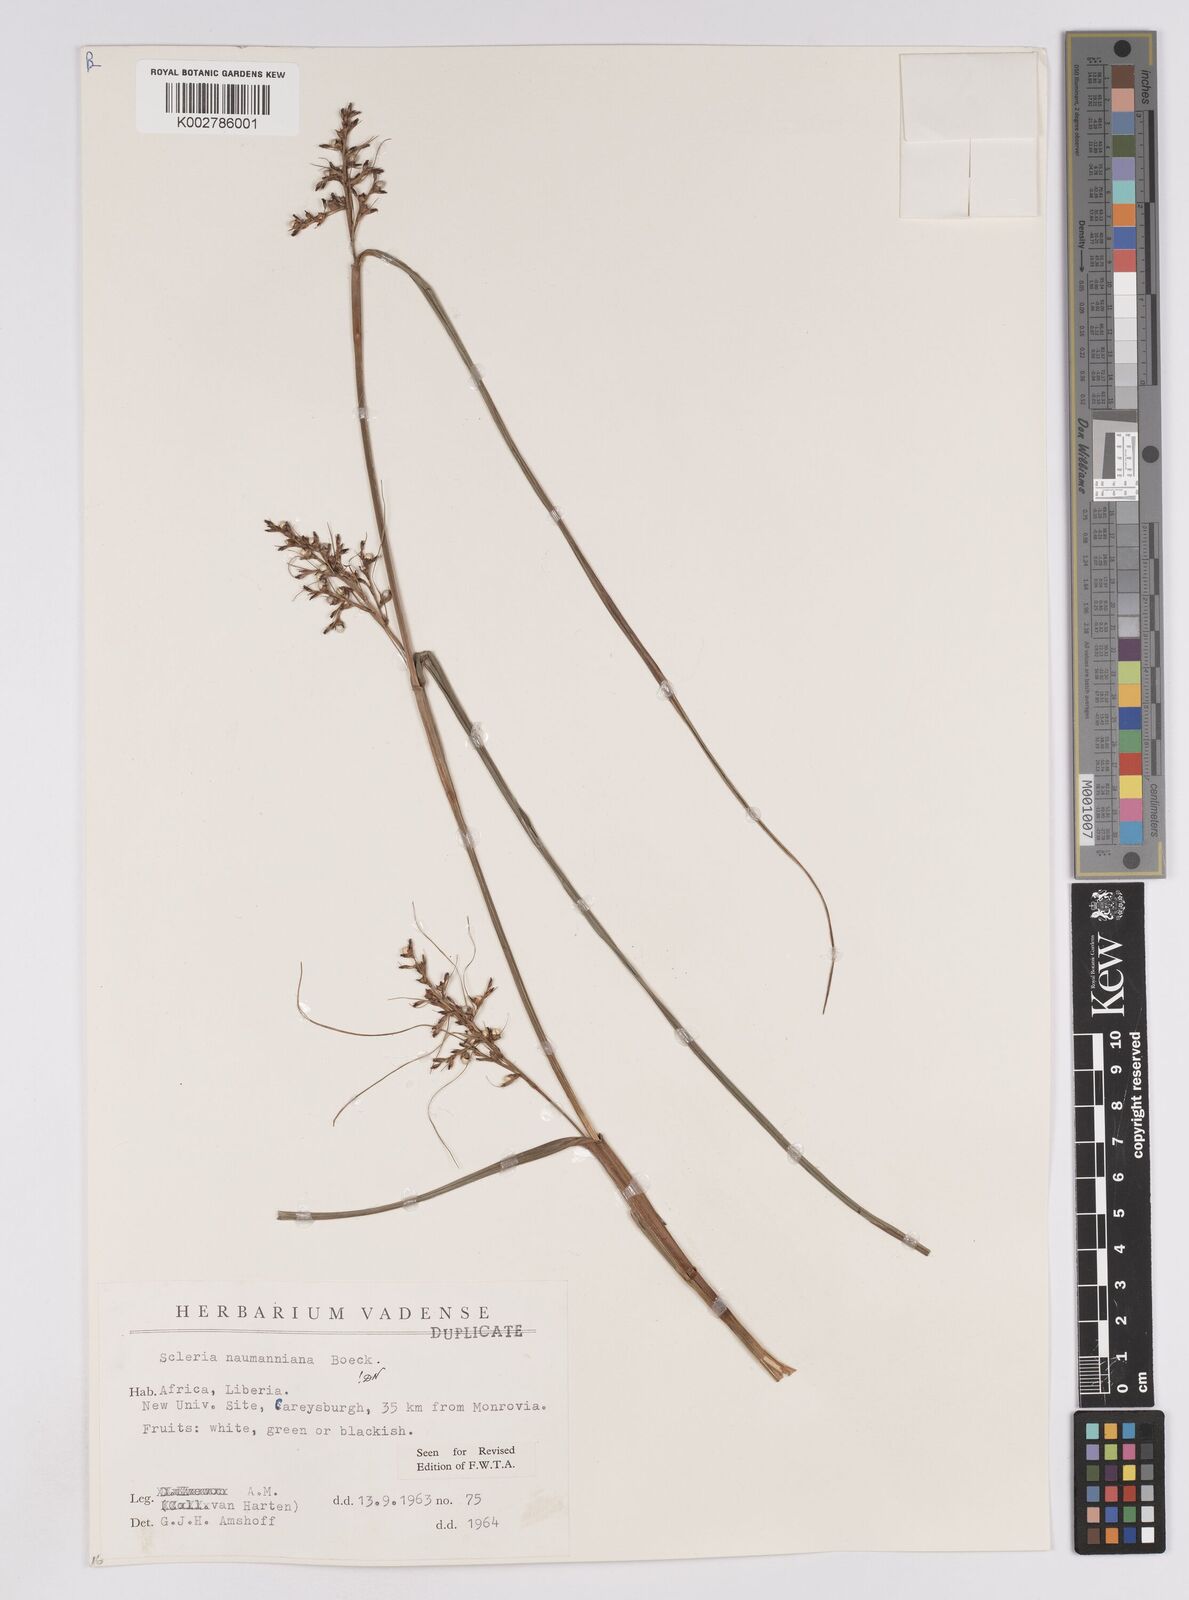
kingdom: Plantae
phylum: Tracheophyta
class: Liliopsida
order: Poales
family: Cyperaceae
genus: Scleria
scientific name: Scleria naumanniana
